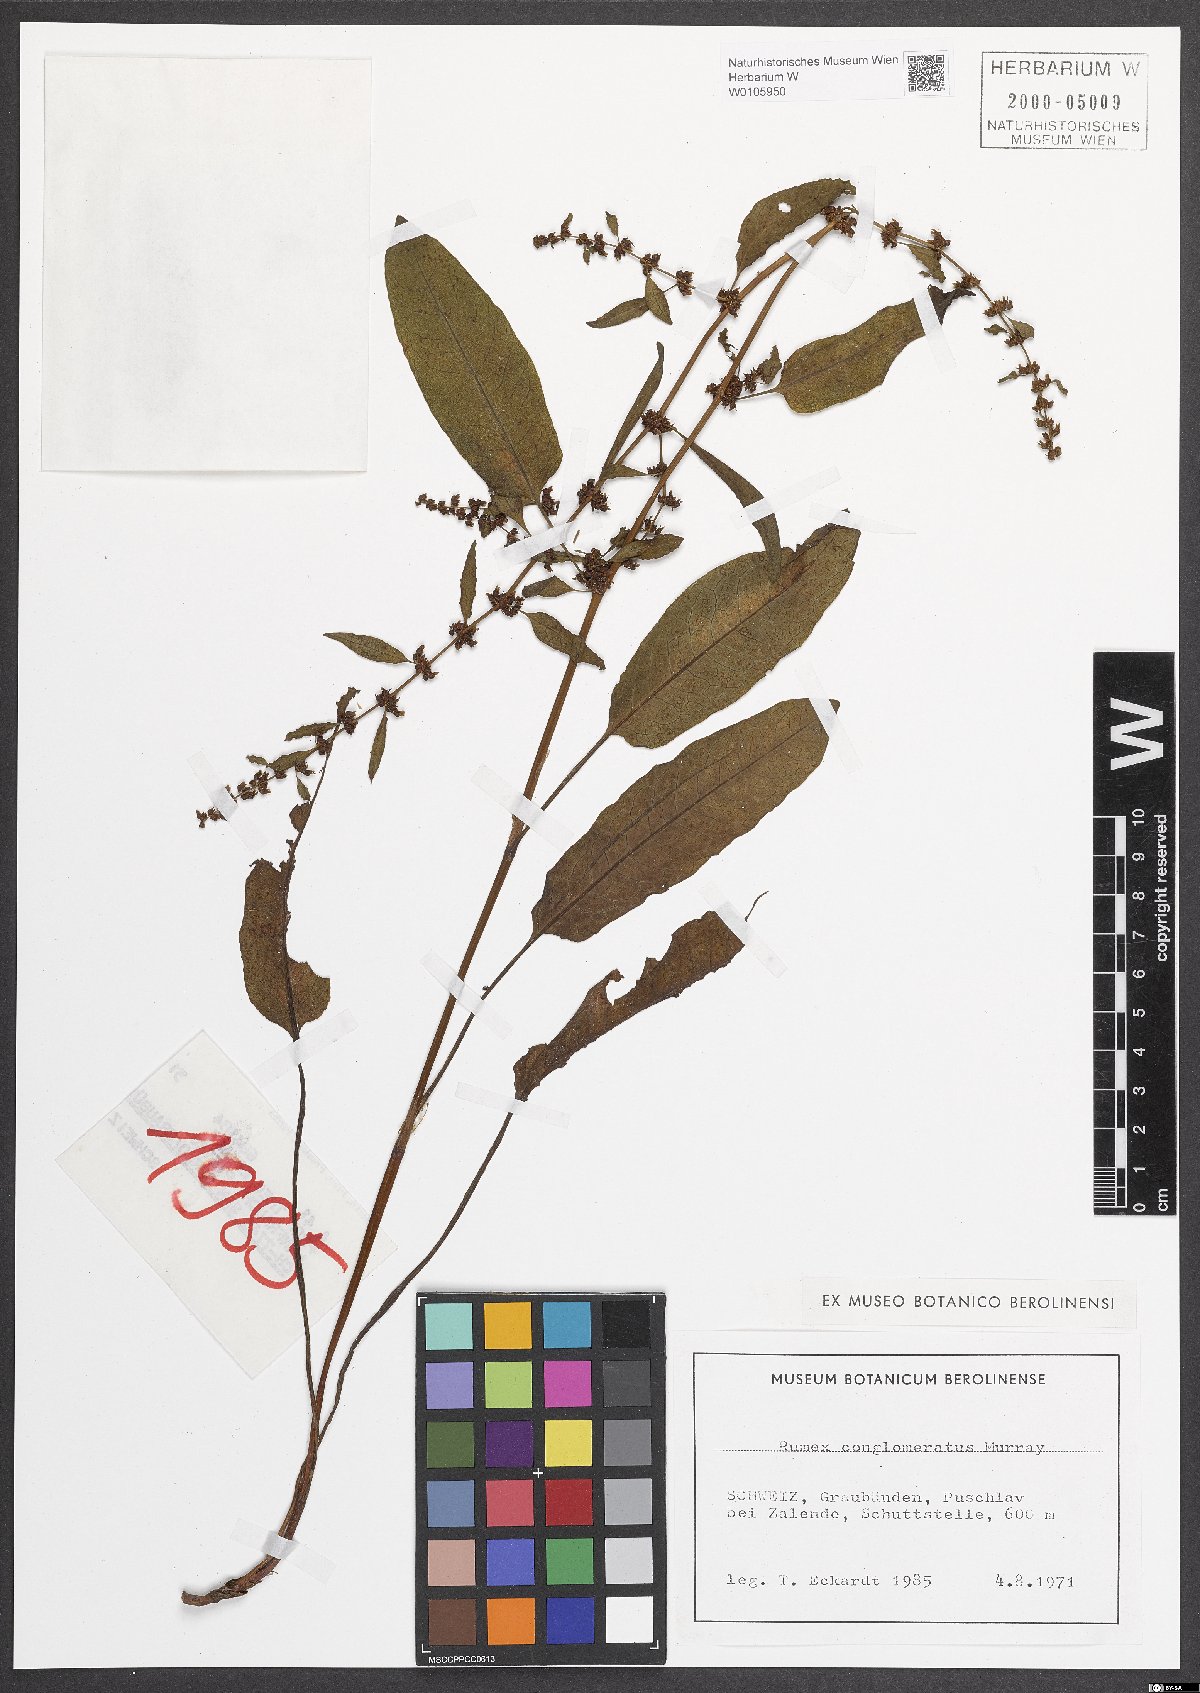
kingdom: Plantae
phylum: Tracheophyta
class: Magnoliopsida
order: Caryophyllales
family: Polygonaceae
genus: Rumex
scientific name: Rumex conglomeratus
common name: Clustered dock
